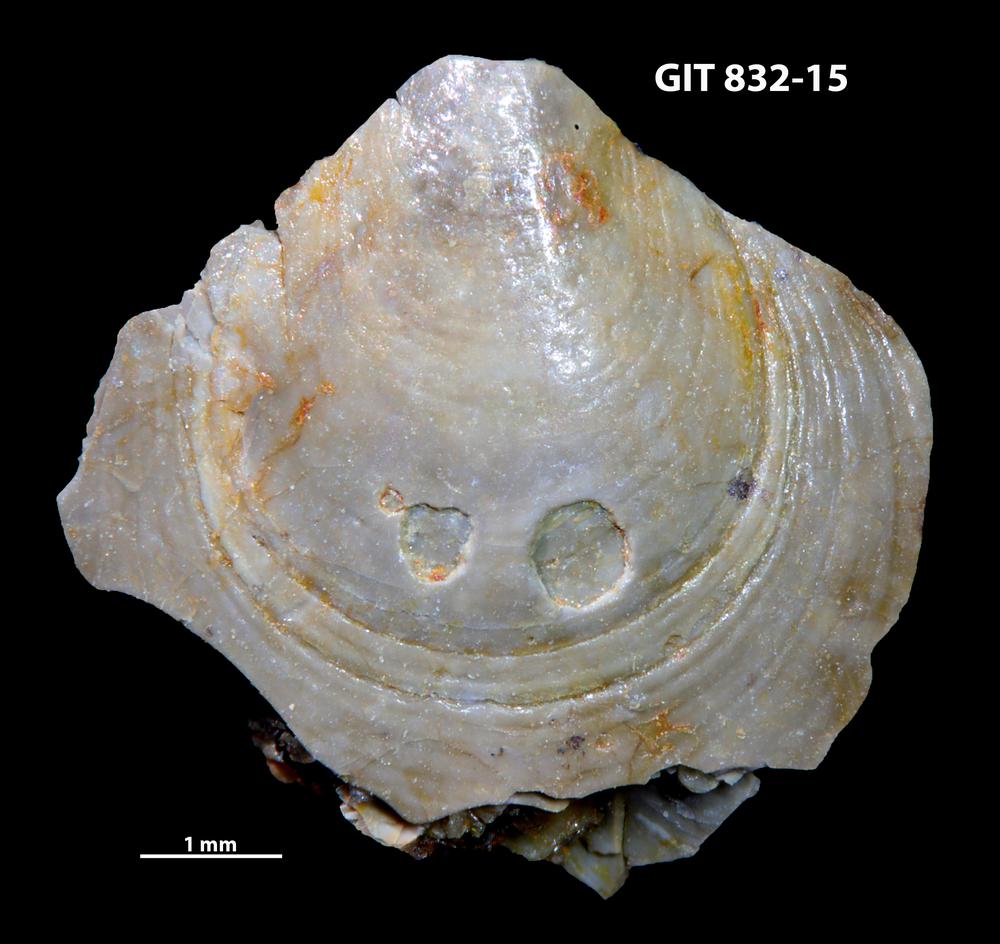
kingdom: Animalia
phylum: Brachiopoda
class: Lingulata
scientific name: Lingulata
